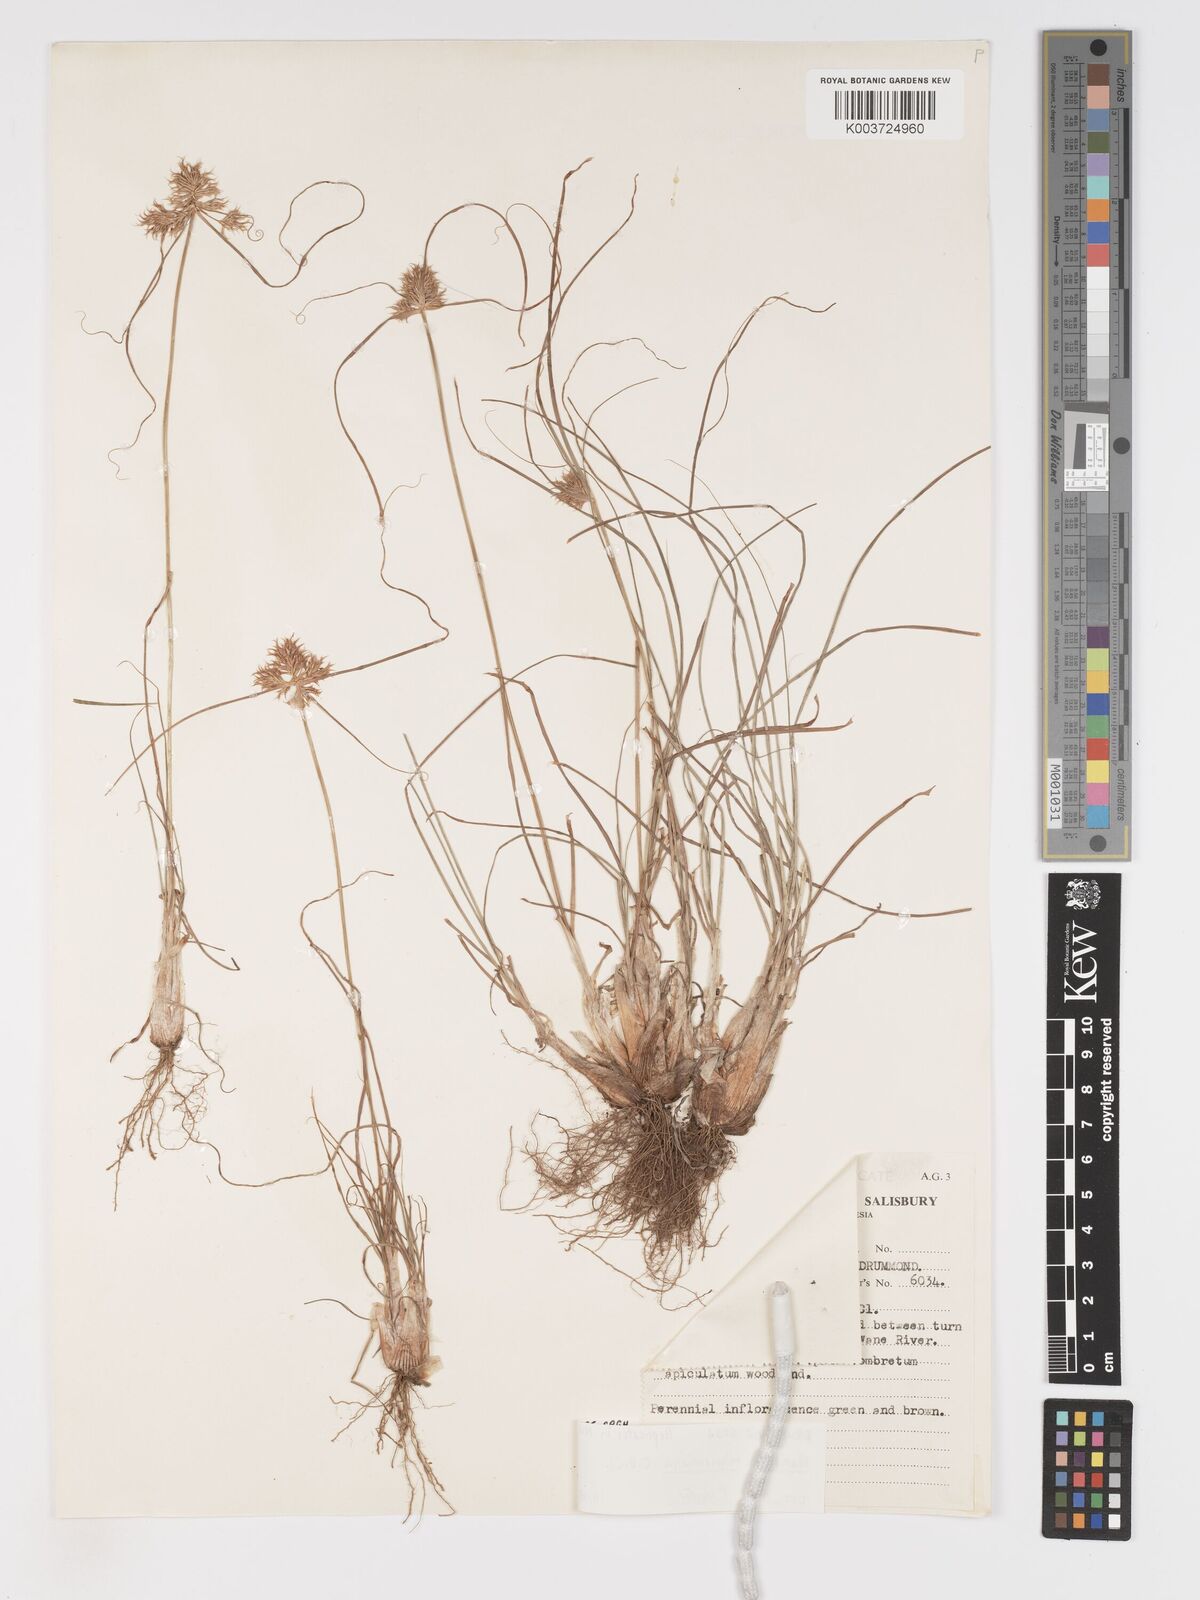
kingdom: Plantae
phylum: Tracheophyta
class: Liliopsida
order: Poales
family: Cyperaceae
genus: Cyperus
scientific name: Cyperus indecorus
